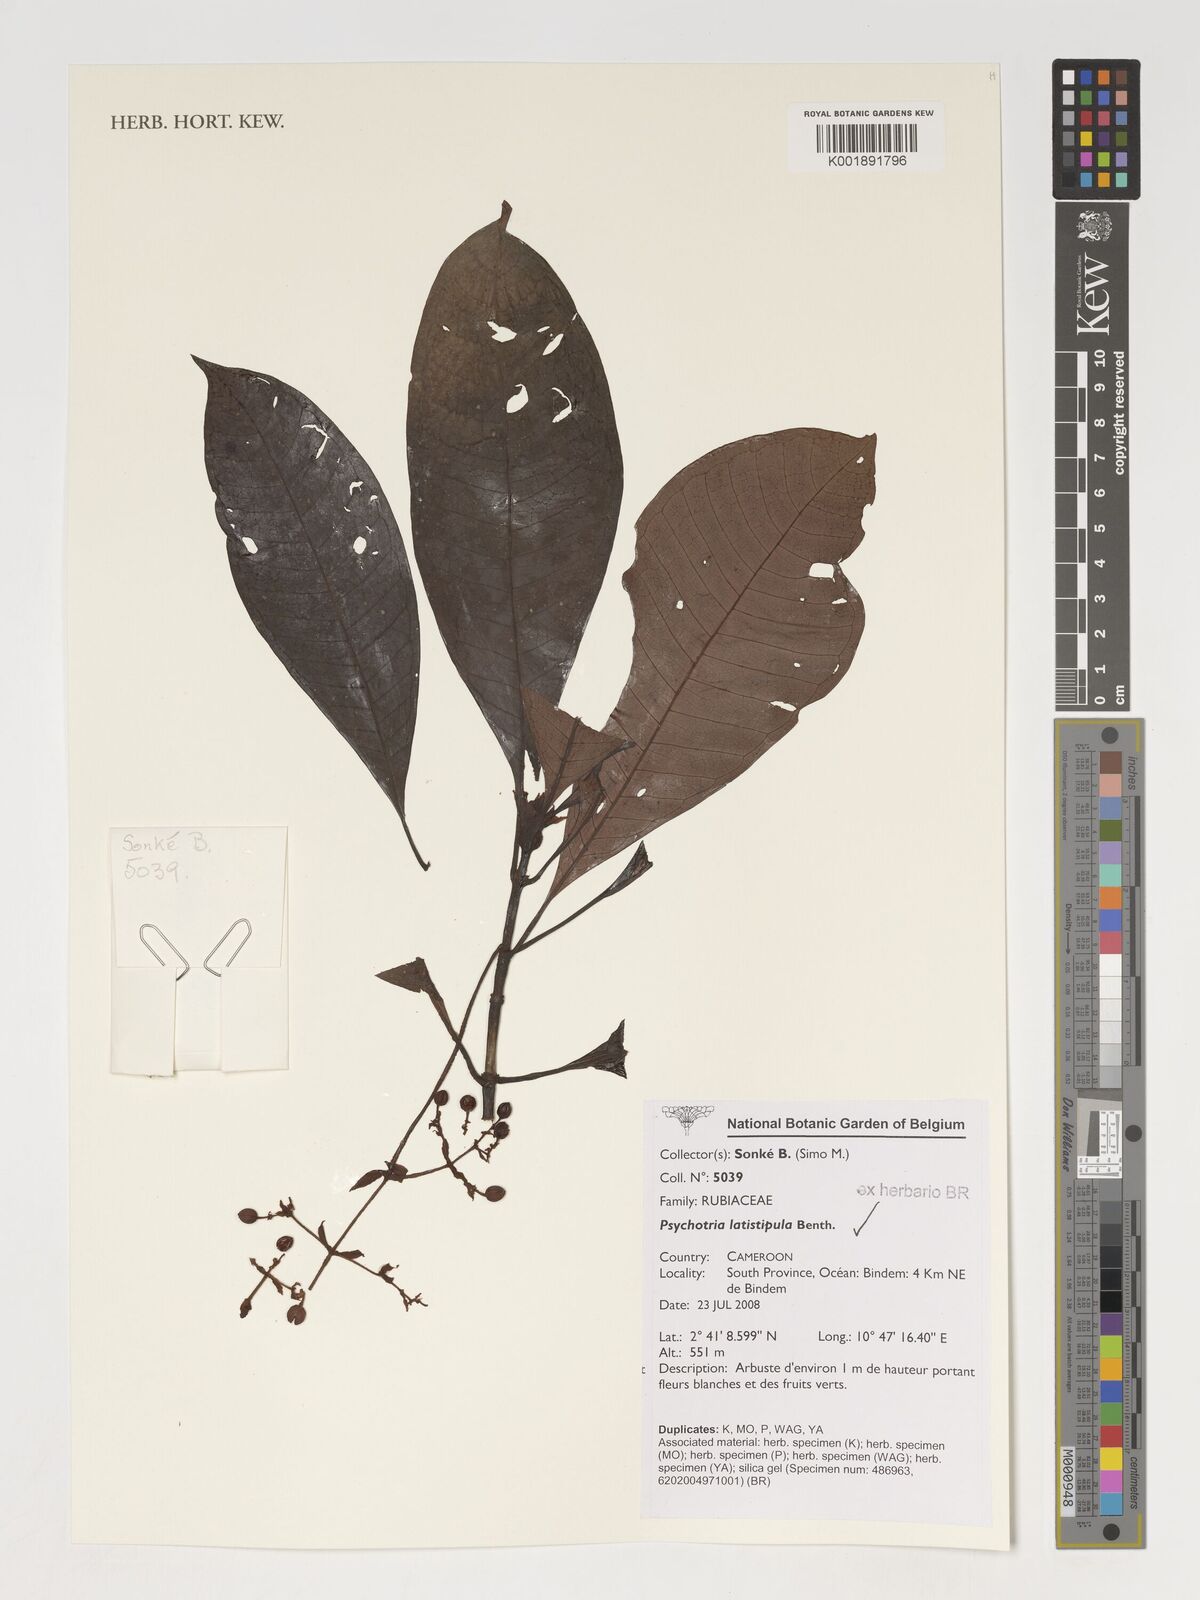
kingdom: Plantae
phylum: Tracheophyta
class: Magnoliopsida
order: Gentianales
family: Rubiaceae
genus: Psychotria
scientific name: Psychotria latistipula
